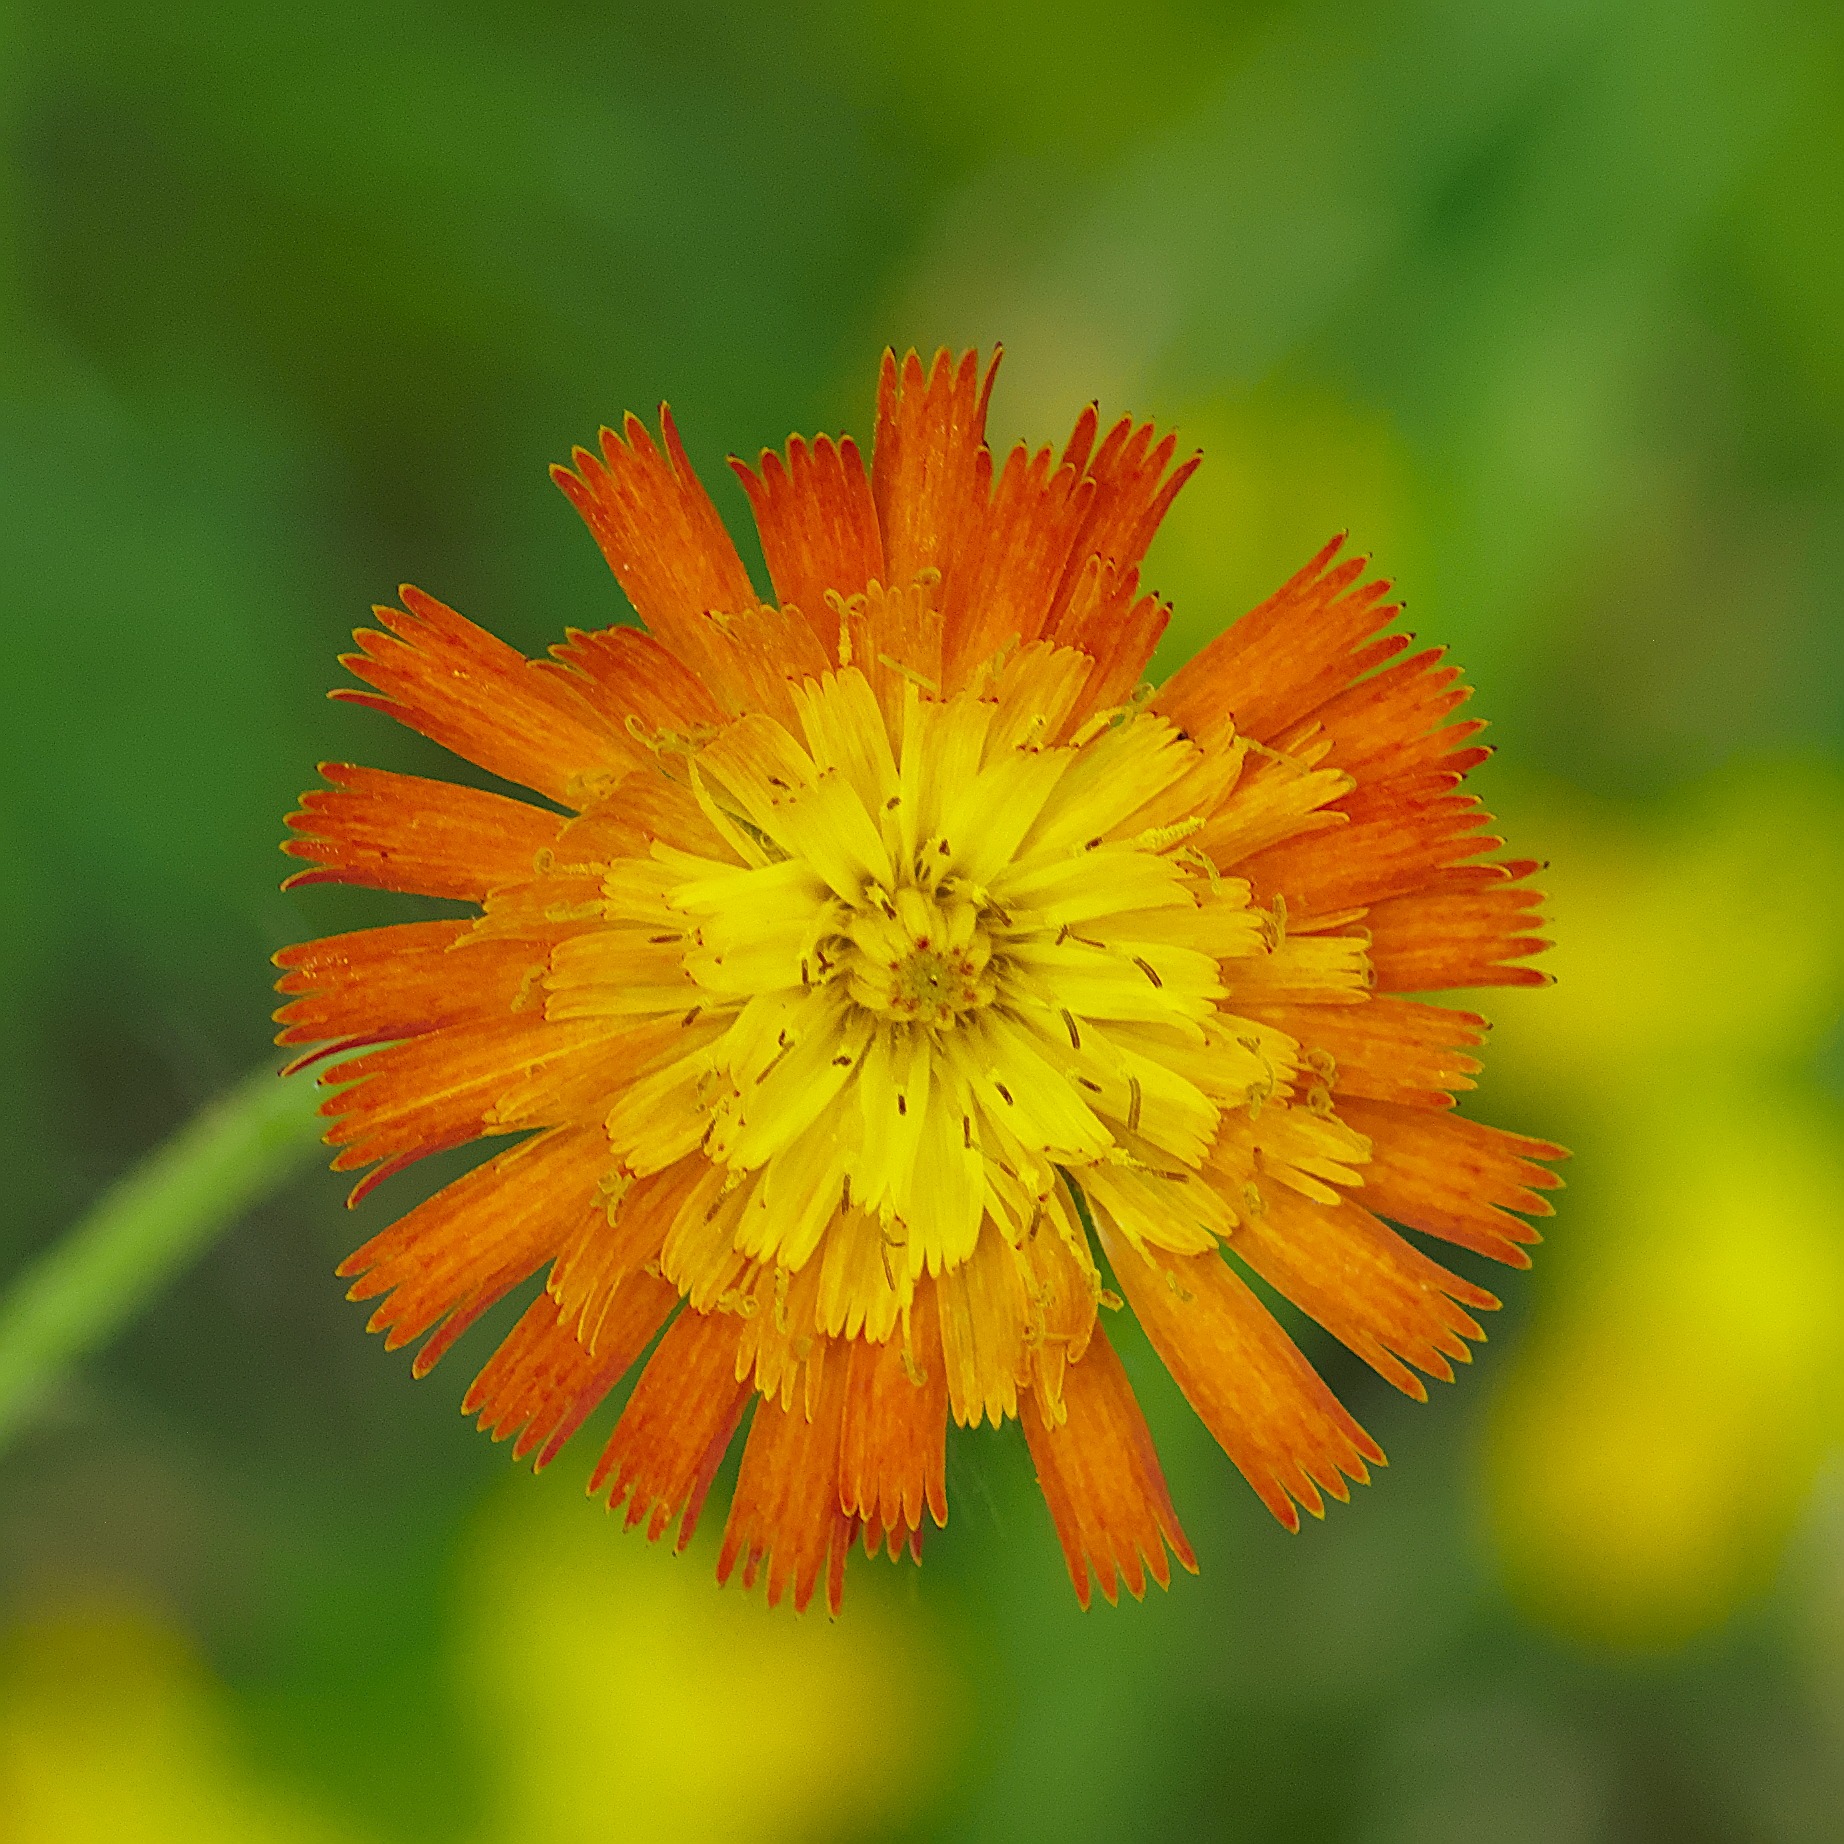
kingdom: Plantae
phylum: Tracheophyta
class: Magnoliopsida
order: Asterales
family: Asteraceae
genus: Pilosella
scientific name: Pilosella aurantiaca
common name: Pomerans-høgeurt
